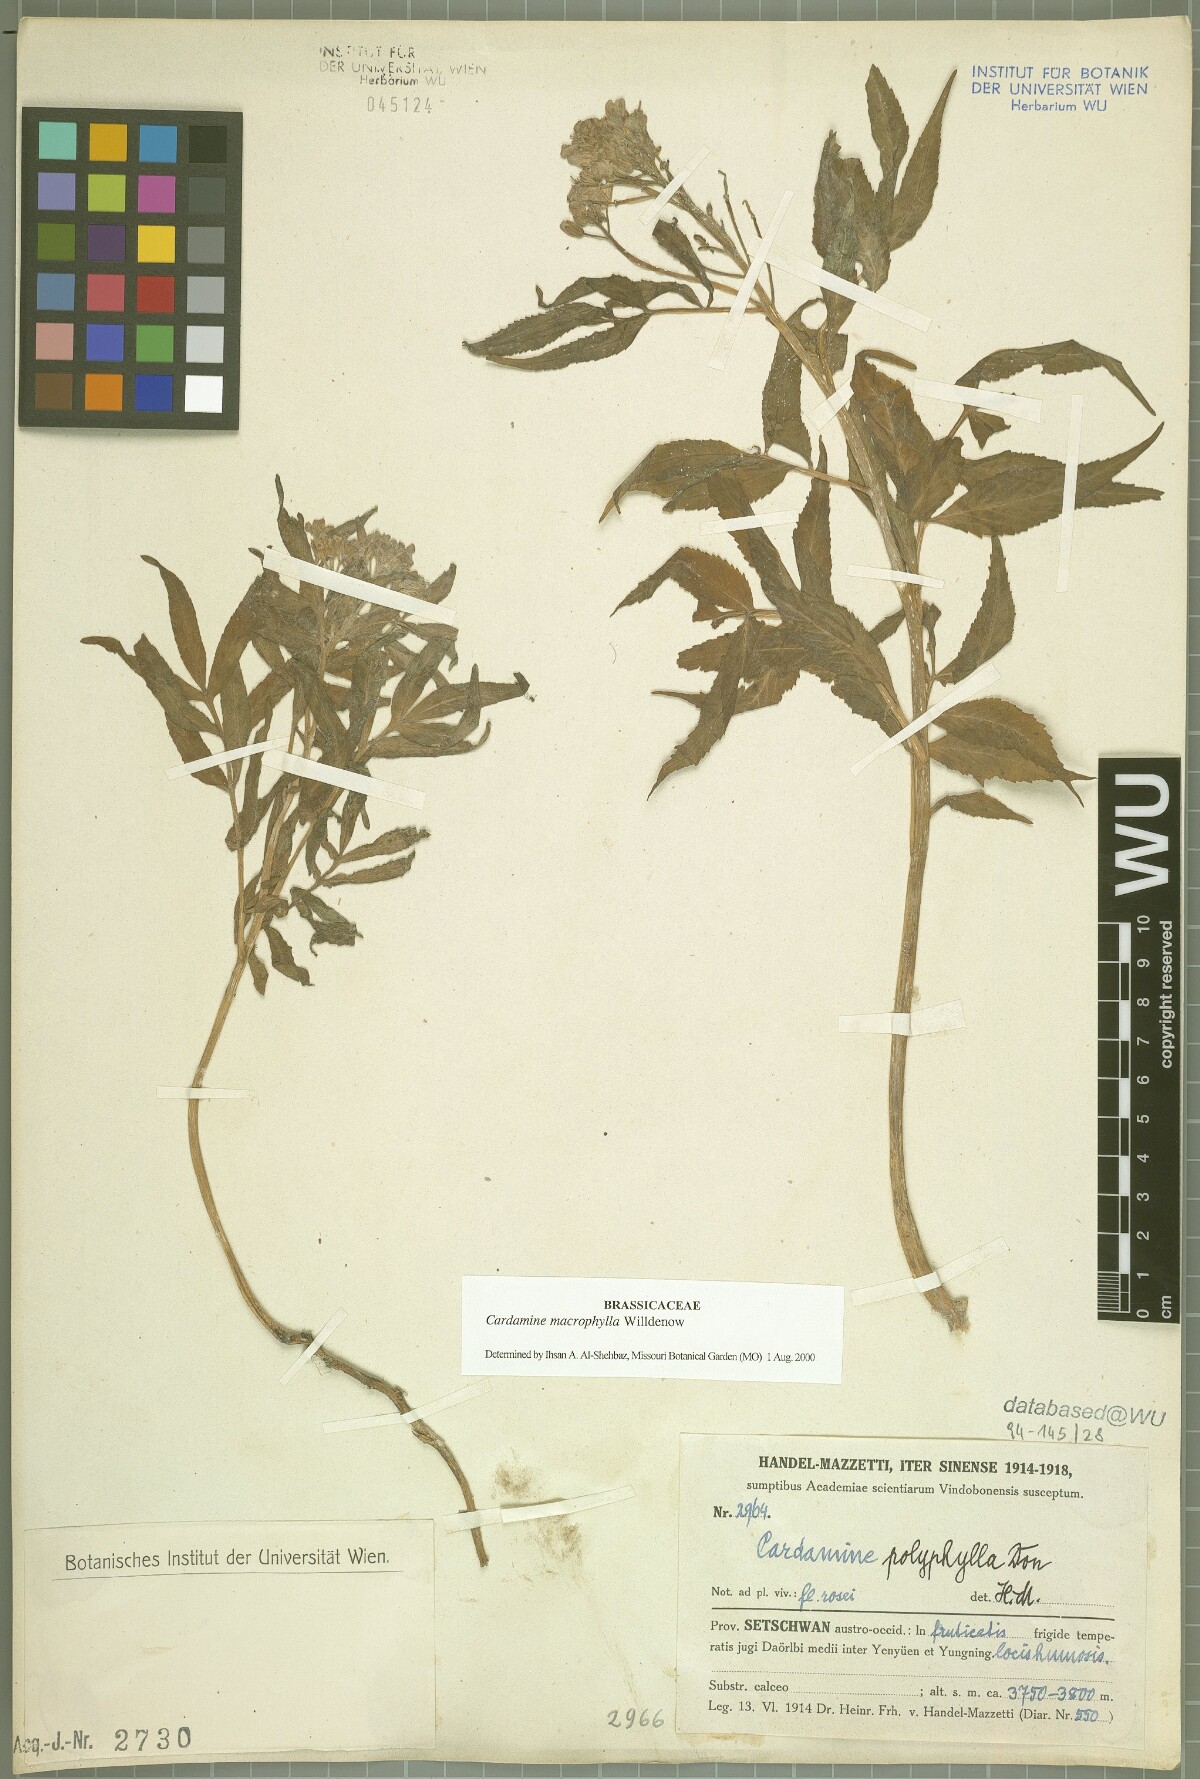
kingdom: Plantae
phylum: Tracheophyta
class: Magnoliopsida
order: Brassicales
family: Brassicaceae
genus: Cardamine
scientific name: Cardamine macrophylla
